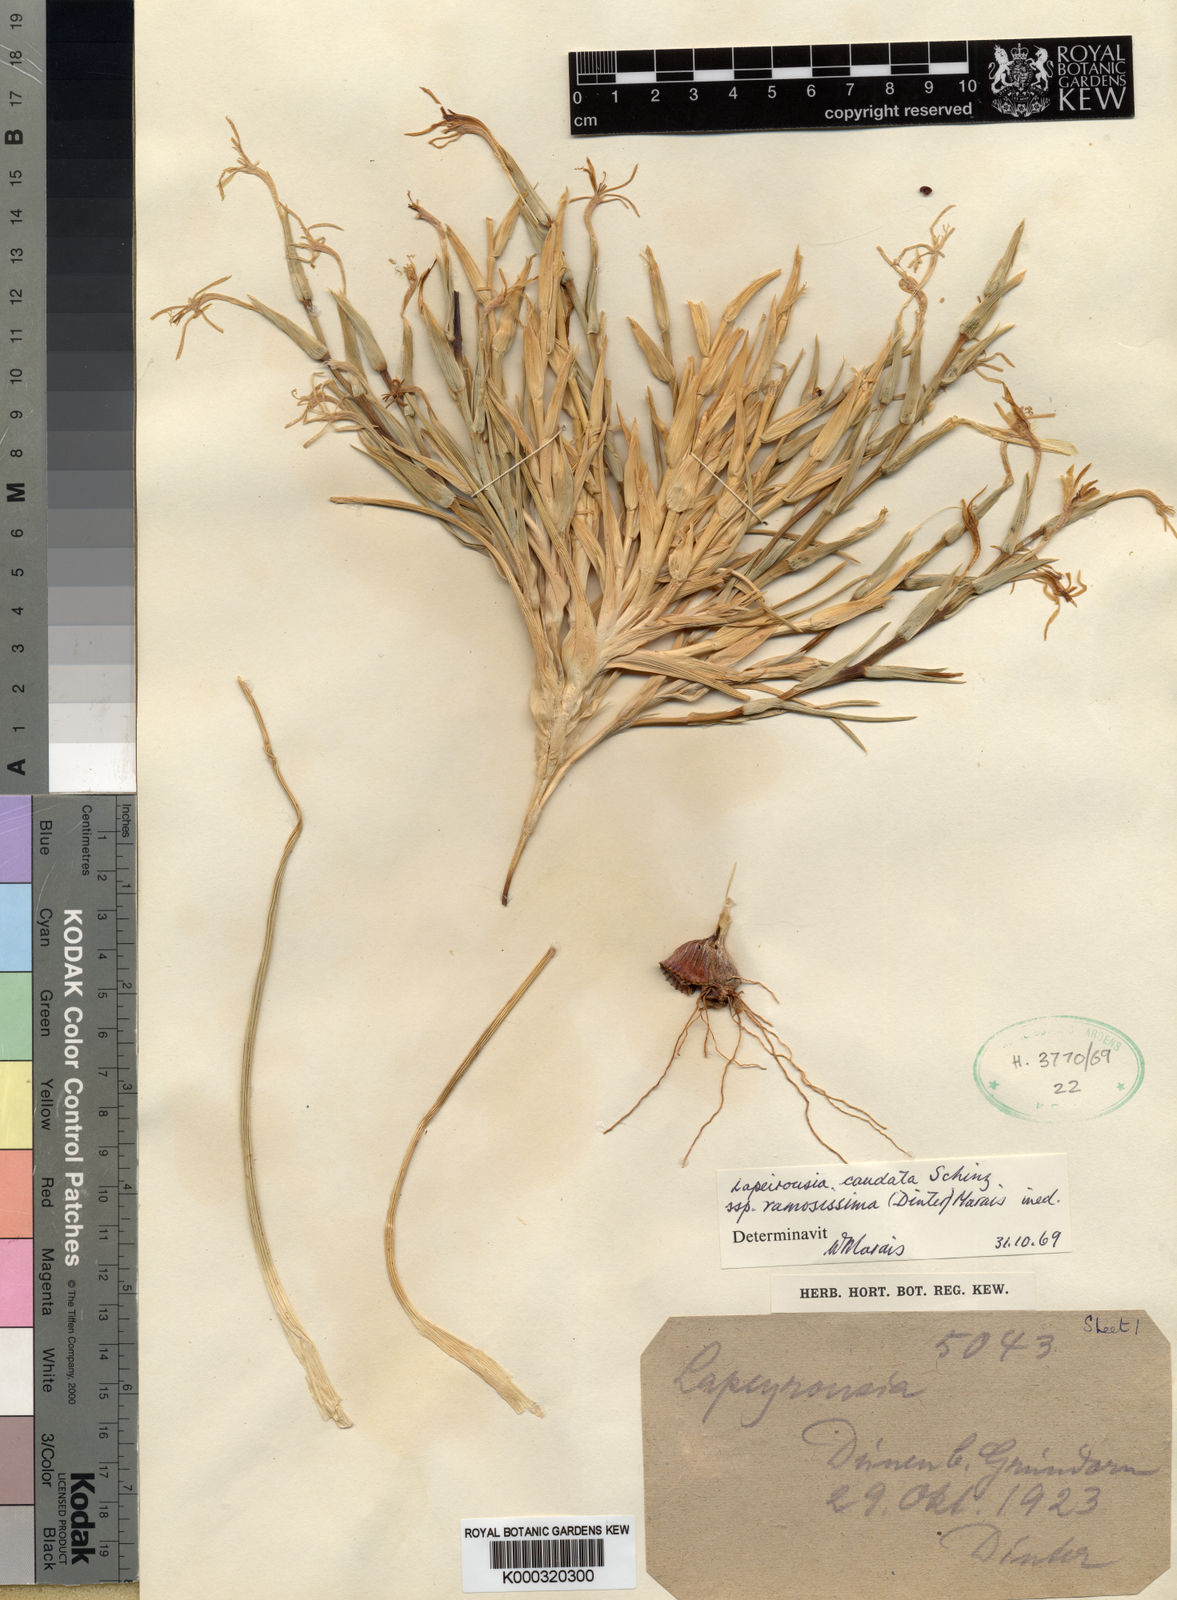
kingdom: Plantae
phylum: Tracheophyta
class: Liliopsida
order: Asparagales
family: Iridaceae
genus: Lapeirousia
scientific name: Lapeirousia littoralis
